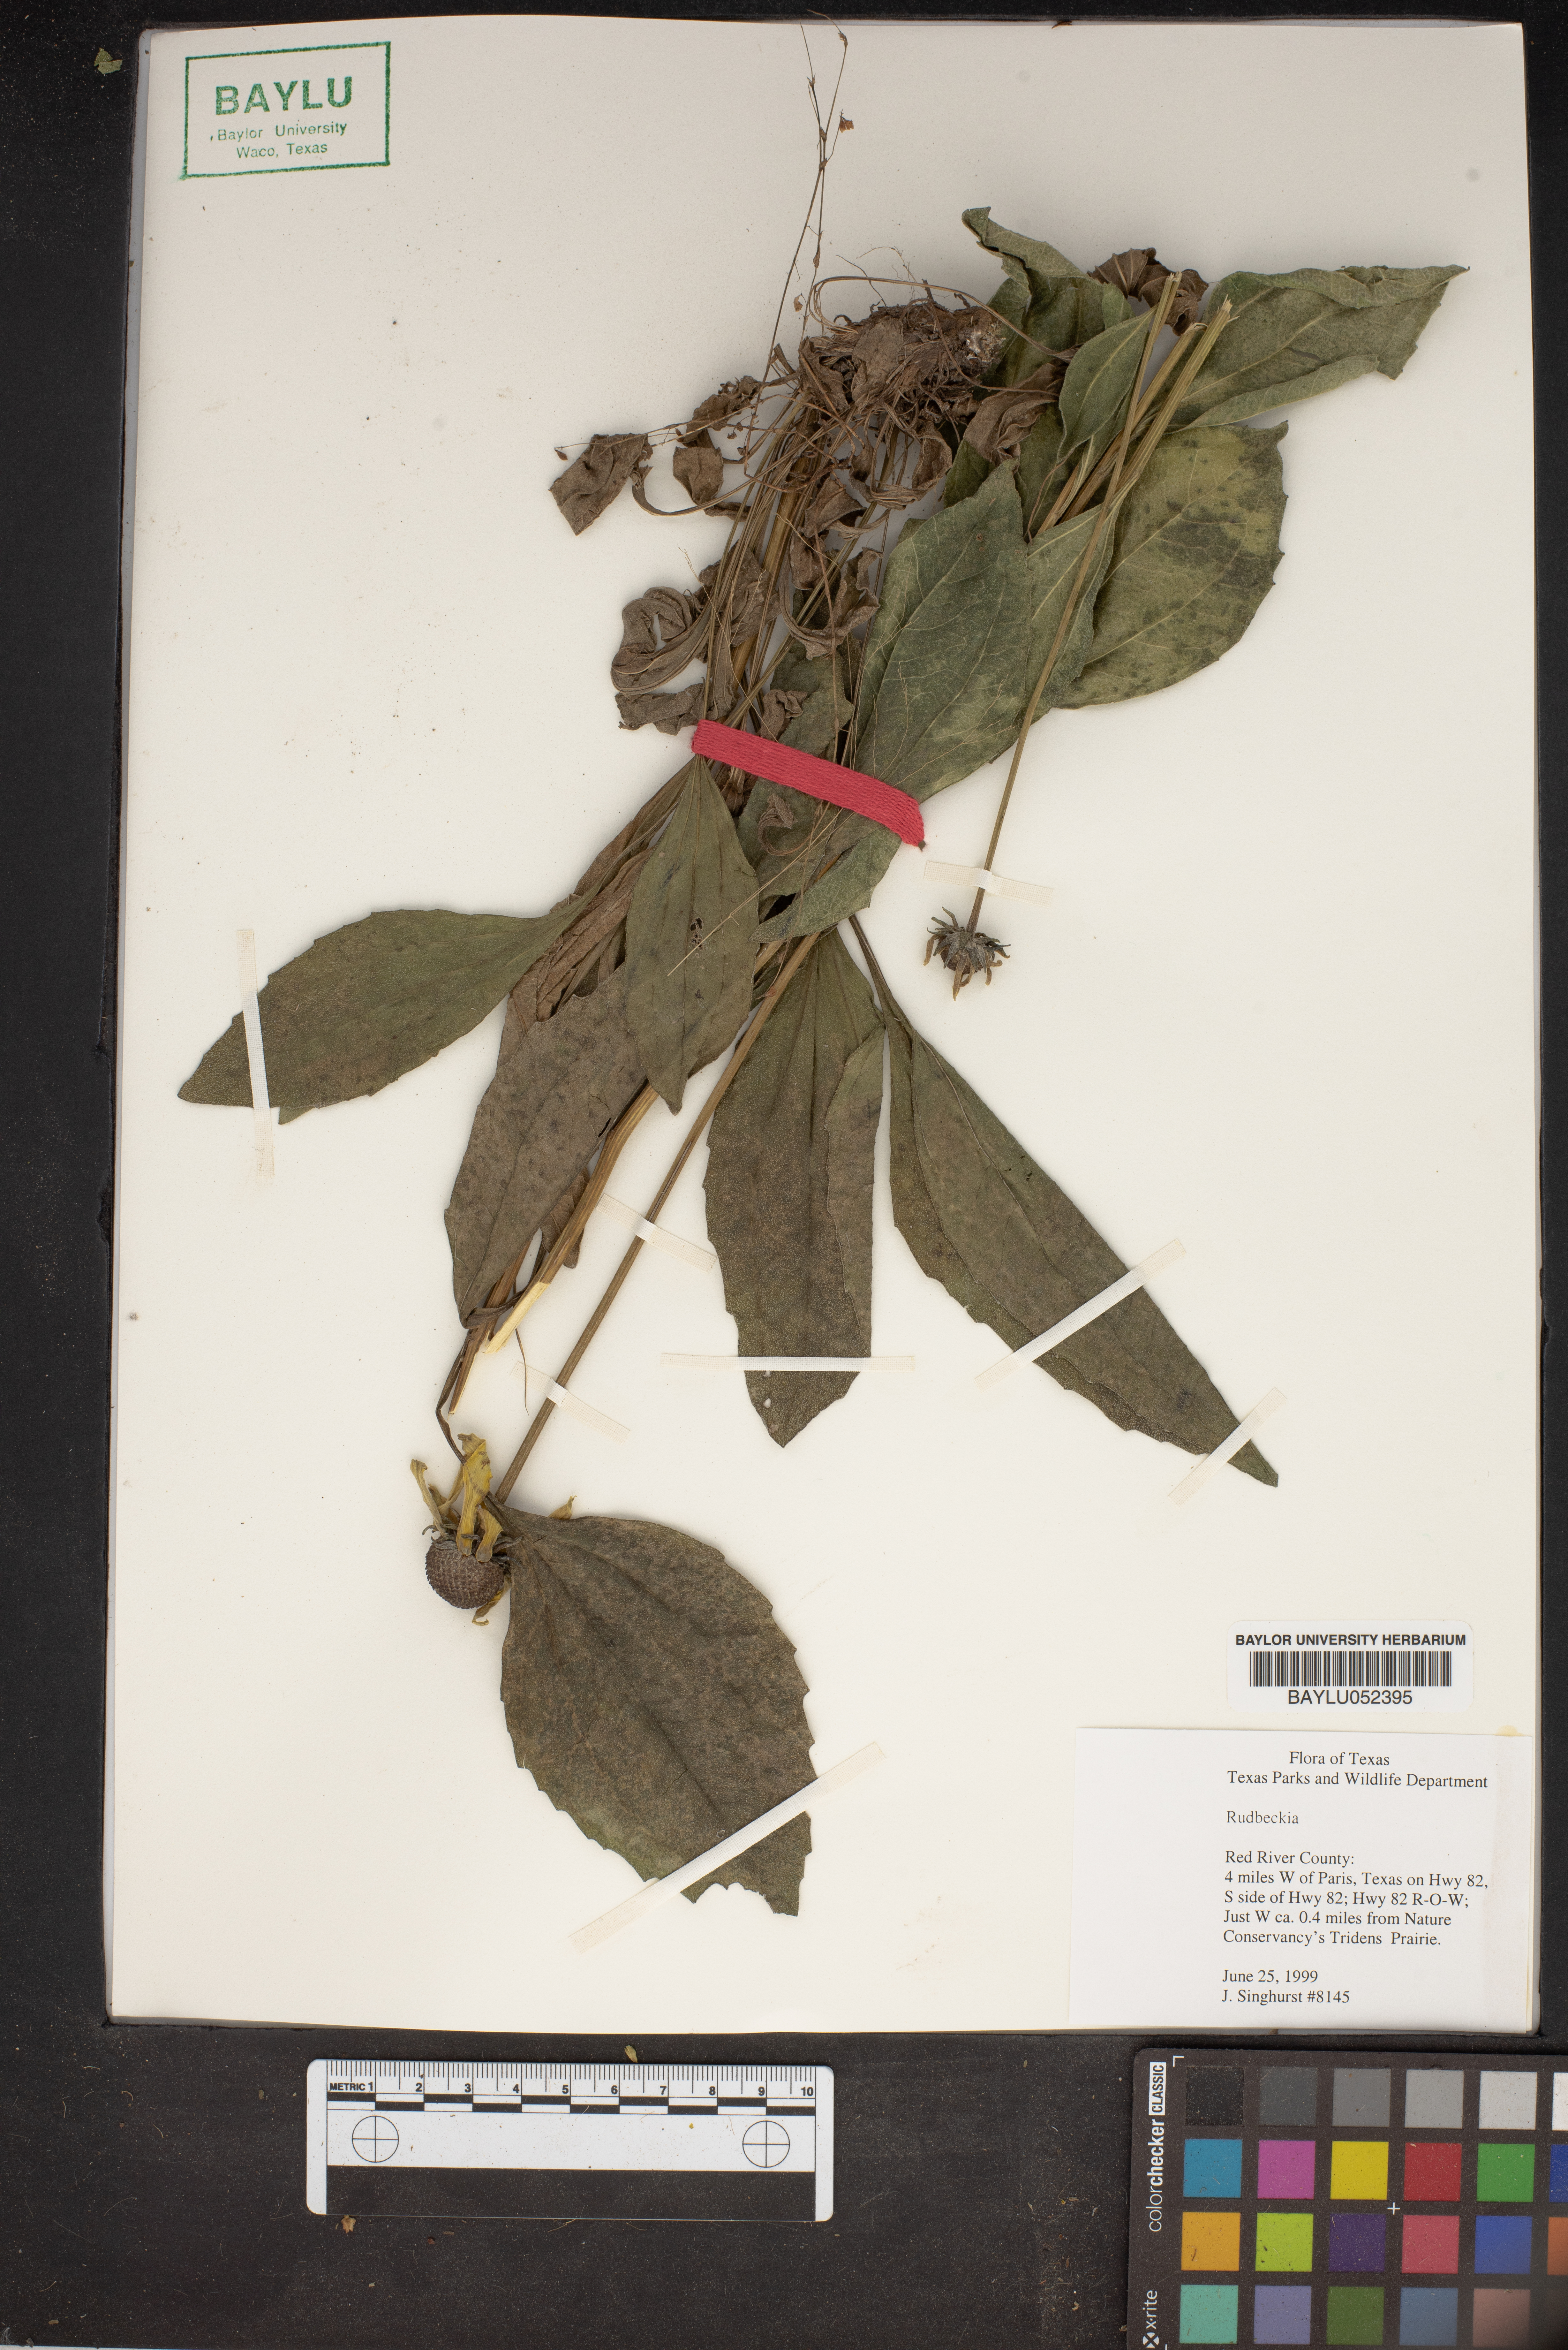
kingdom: Plantae
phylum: Tracheophyta
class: Magnoliopsida
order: Asterales
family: Asteraceae
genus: Rudbeckia
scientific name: Rudbeckia
